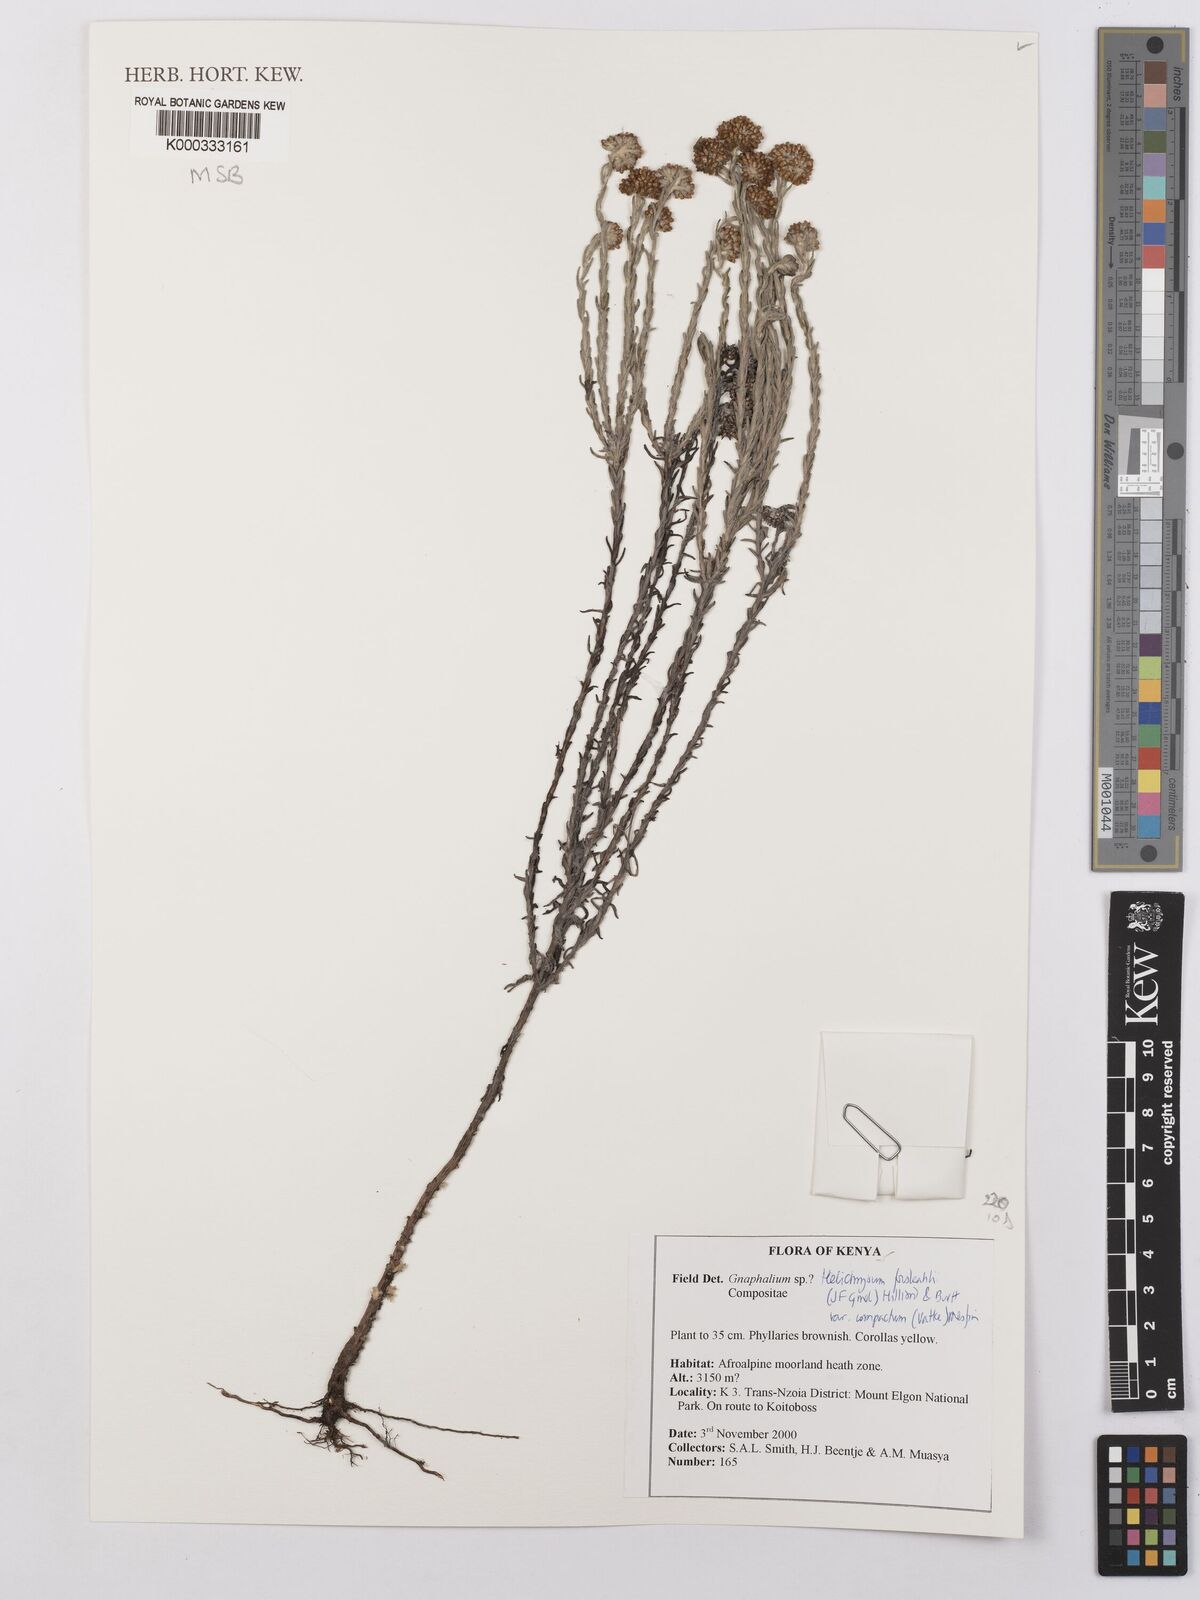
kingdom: Plantae
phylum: Tracheophyta
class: Magnoliopsida
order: Asterales
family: Asteraceae
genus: Helichrysum
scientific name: Helichrysum forskahlii
